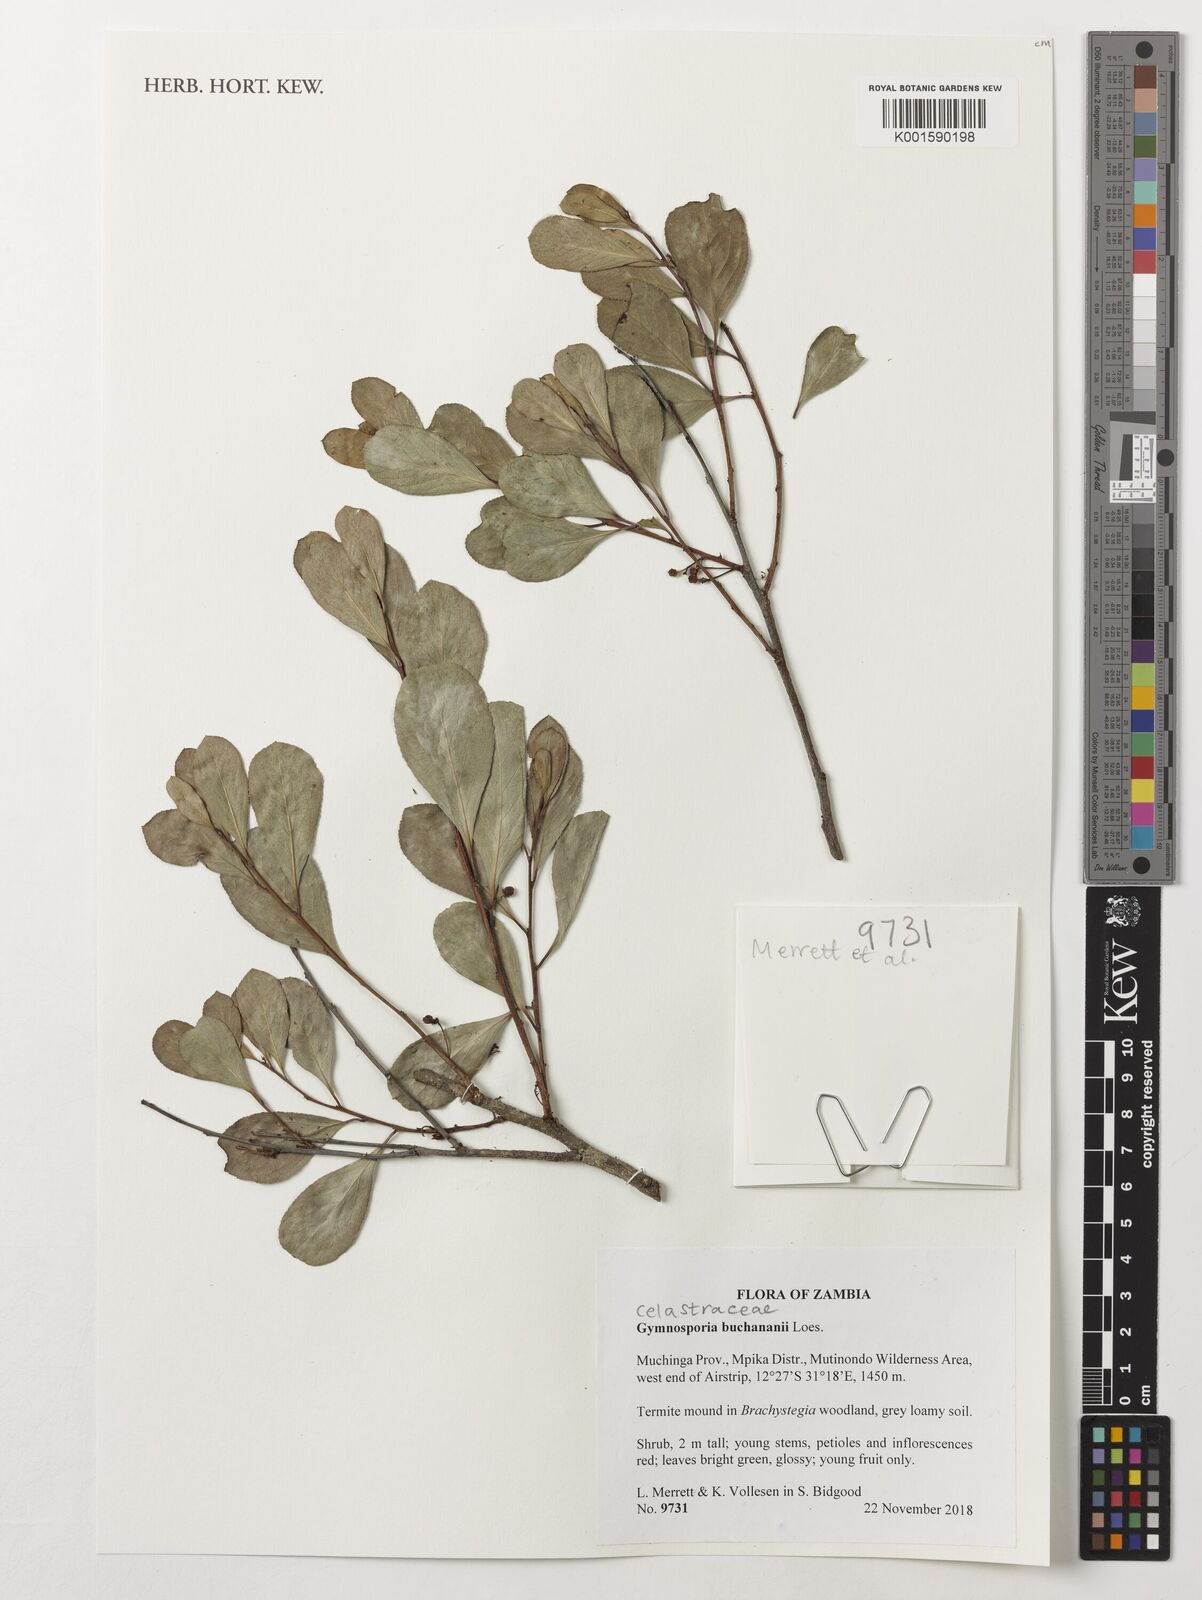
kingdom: Plantae
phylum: Tracheophyta
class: Magnoliopsida
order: Celastrales
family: Celastraceae
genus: Gymnosporia
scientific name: Gymnosporia buchananii
